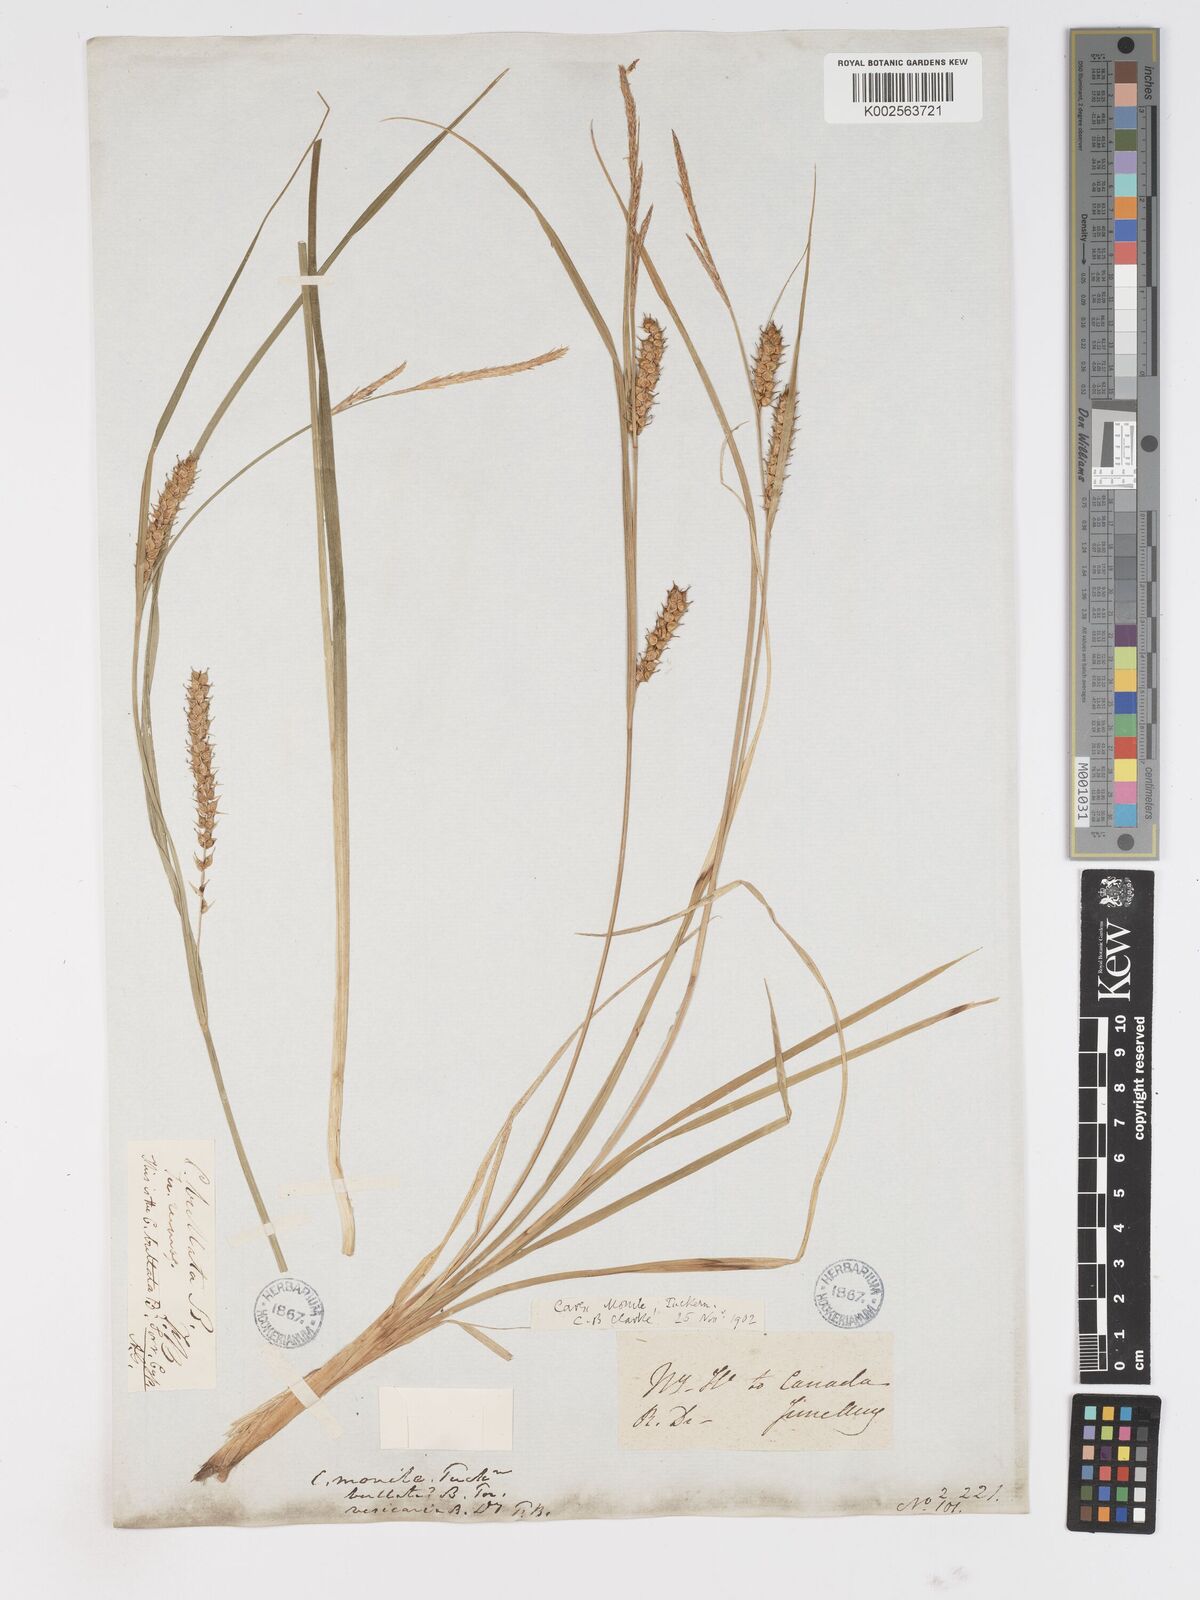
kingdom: Plantae
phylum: Tracheophyta
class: Liliopsida
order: Poales
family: Cyperaceae
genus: Carex
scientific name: Carex vesicaria
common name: Bladder-sedge
